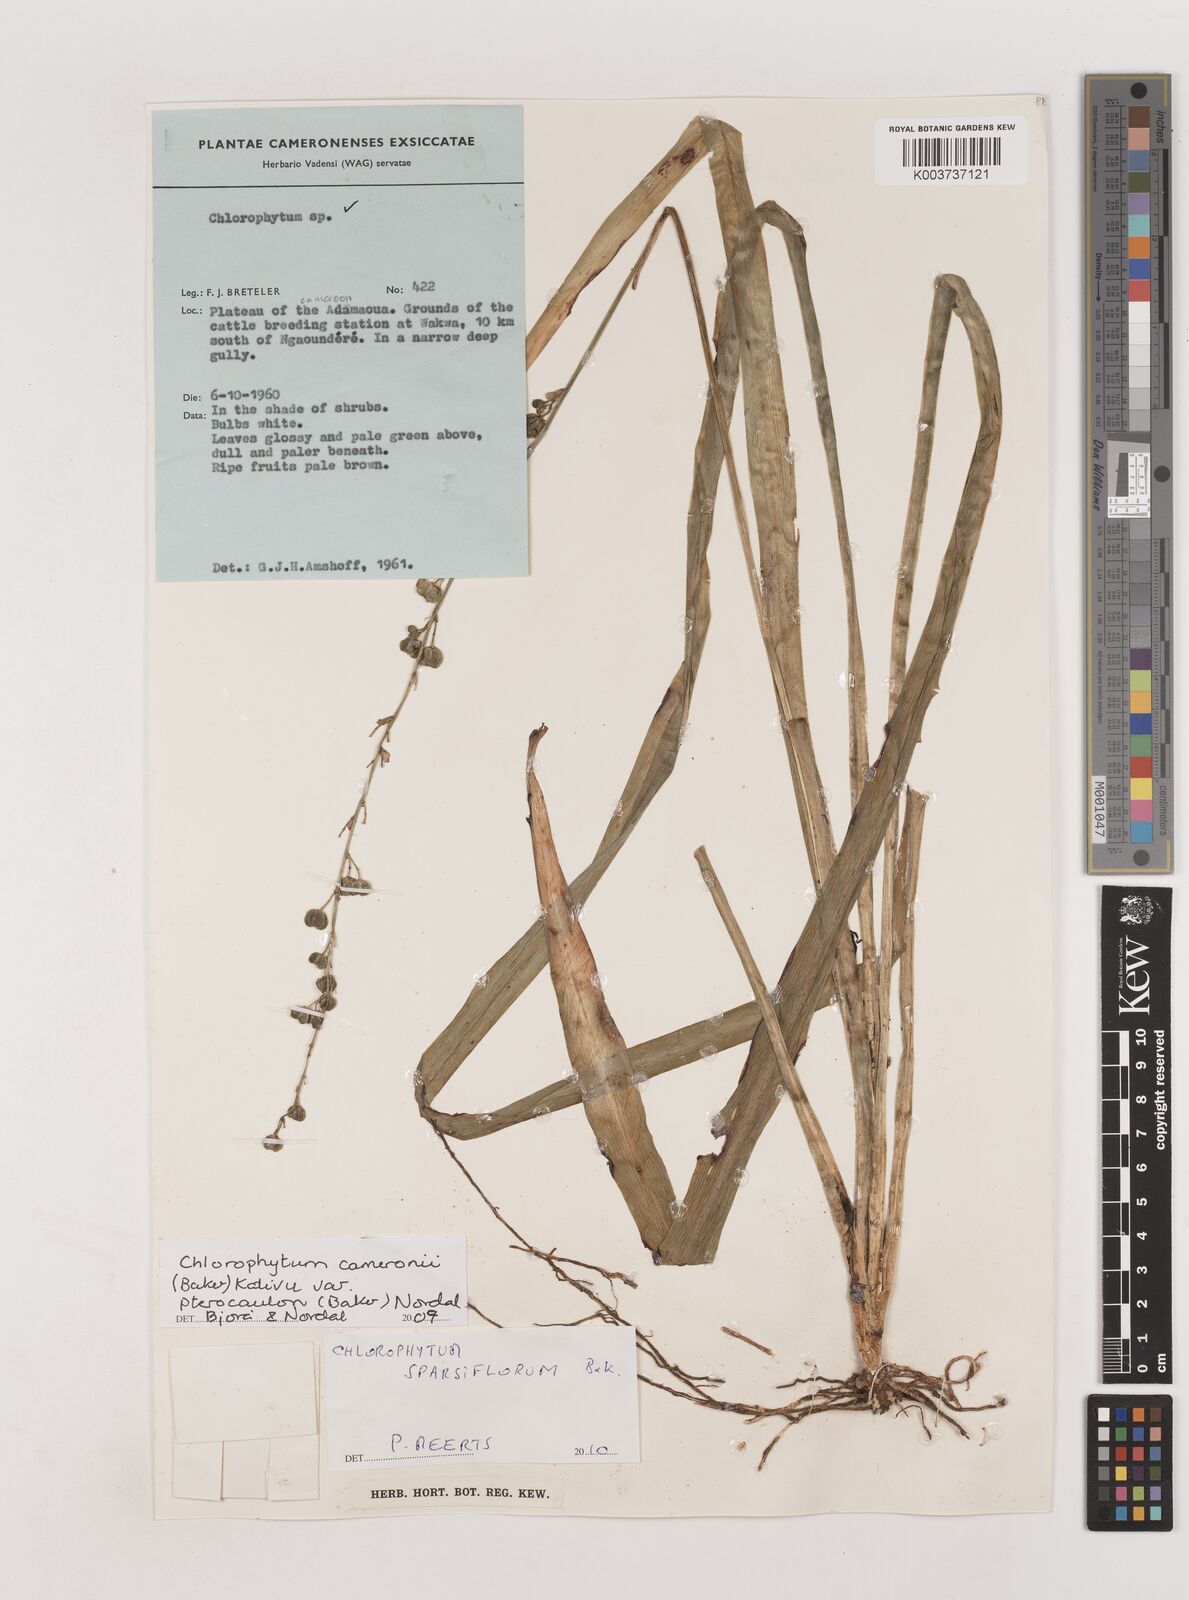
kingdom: Plantae
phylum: Tracheophyta
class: Liliopsida
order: Asparagales
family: Asparagaceae
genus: Chlorophytum
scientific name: Chlorophytum sparsiflorum
